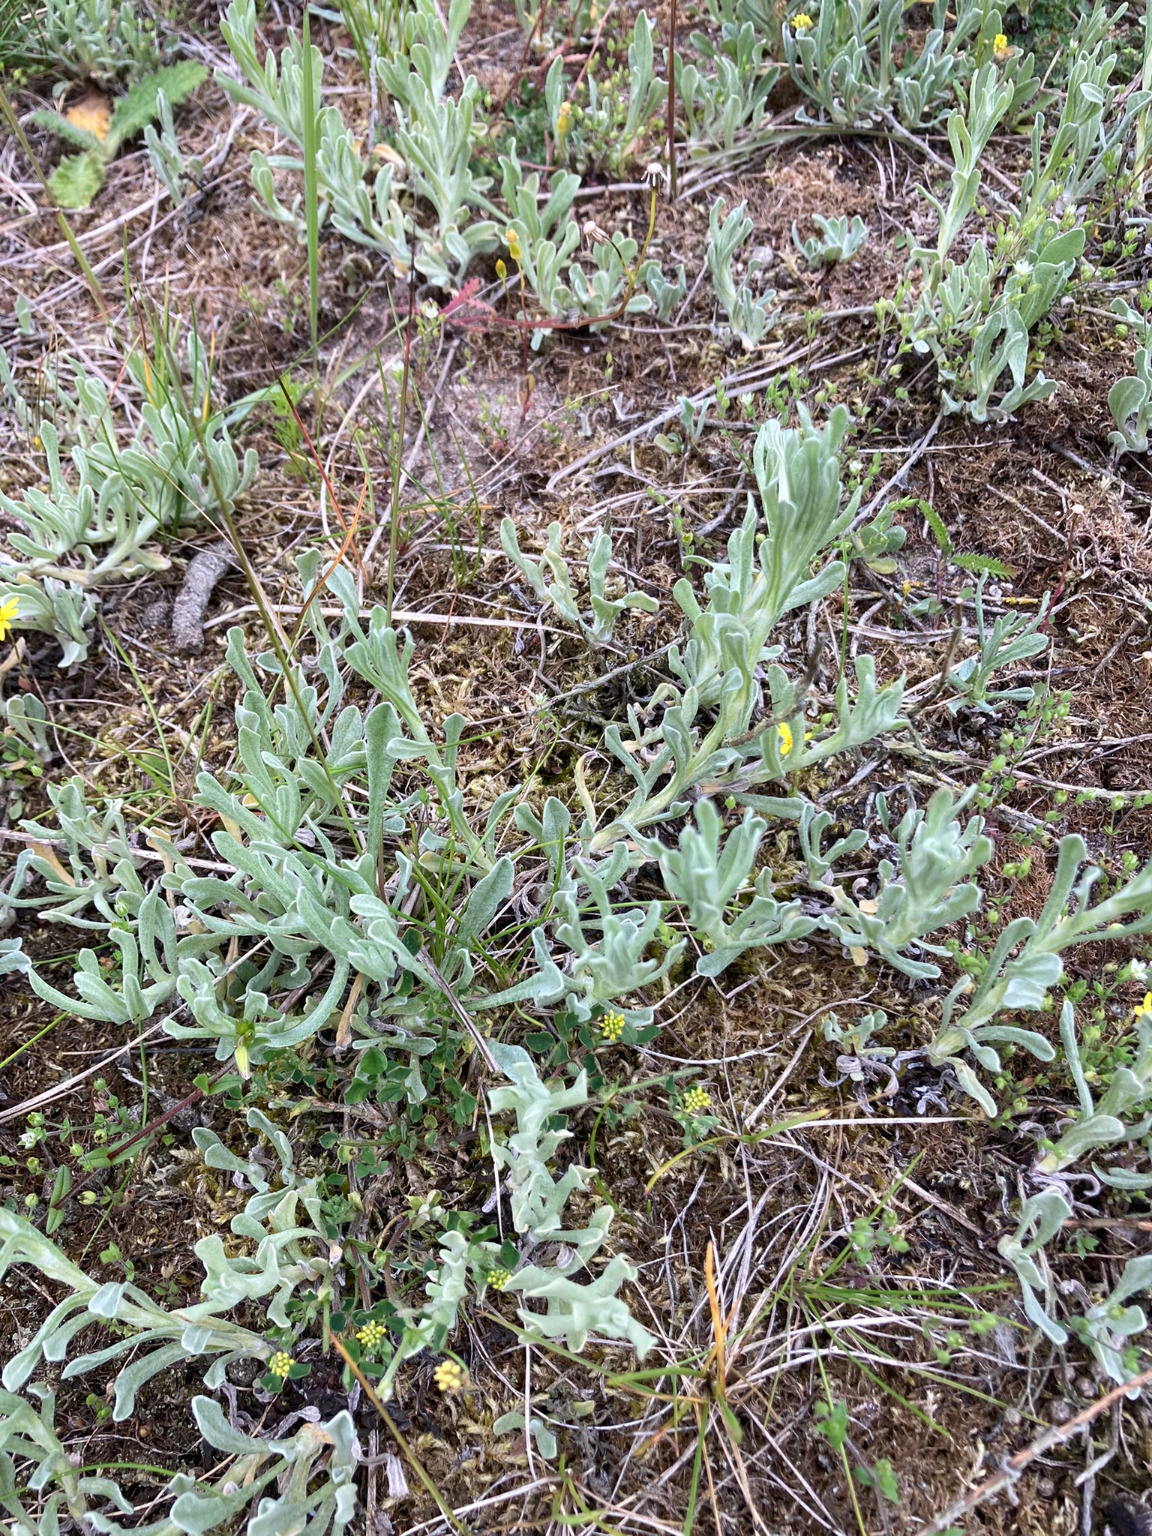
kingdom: Plantae
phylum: Tracheophyta
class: Magnoliopsida
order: Asterales
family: Asteraceae
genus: Helichrysum
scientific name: Helichrysum arenarium
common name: Gul evighedsblomst
